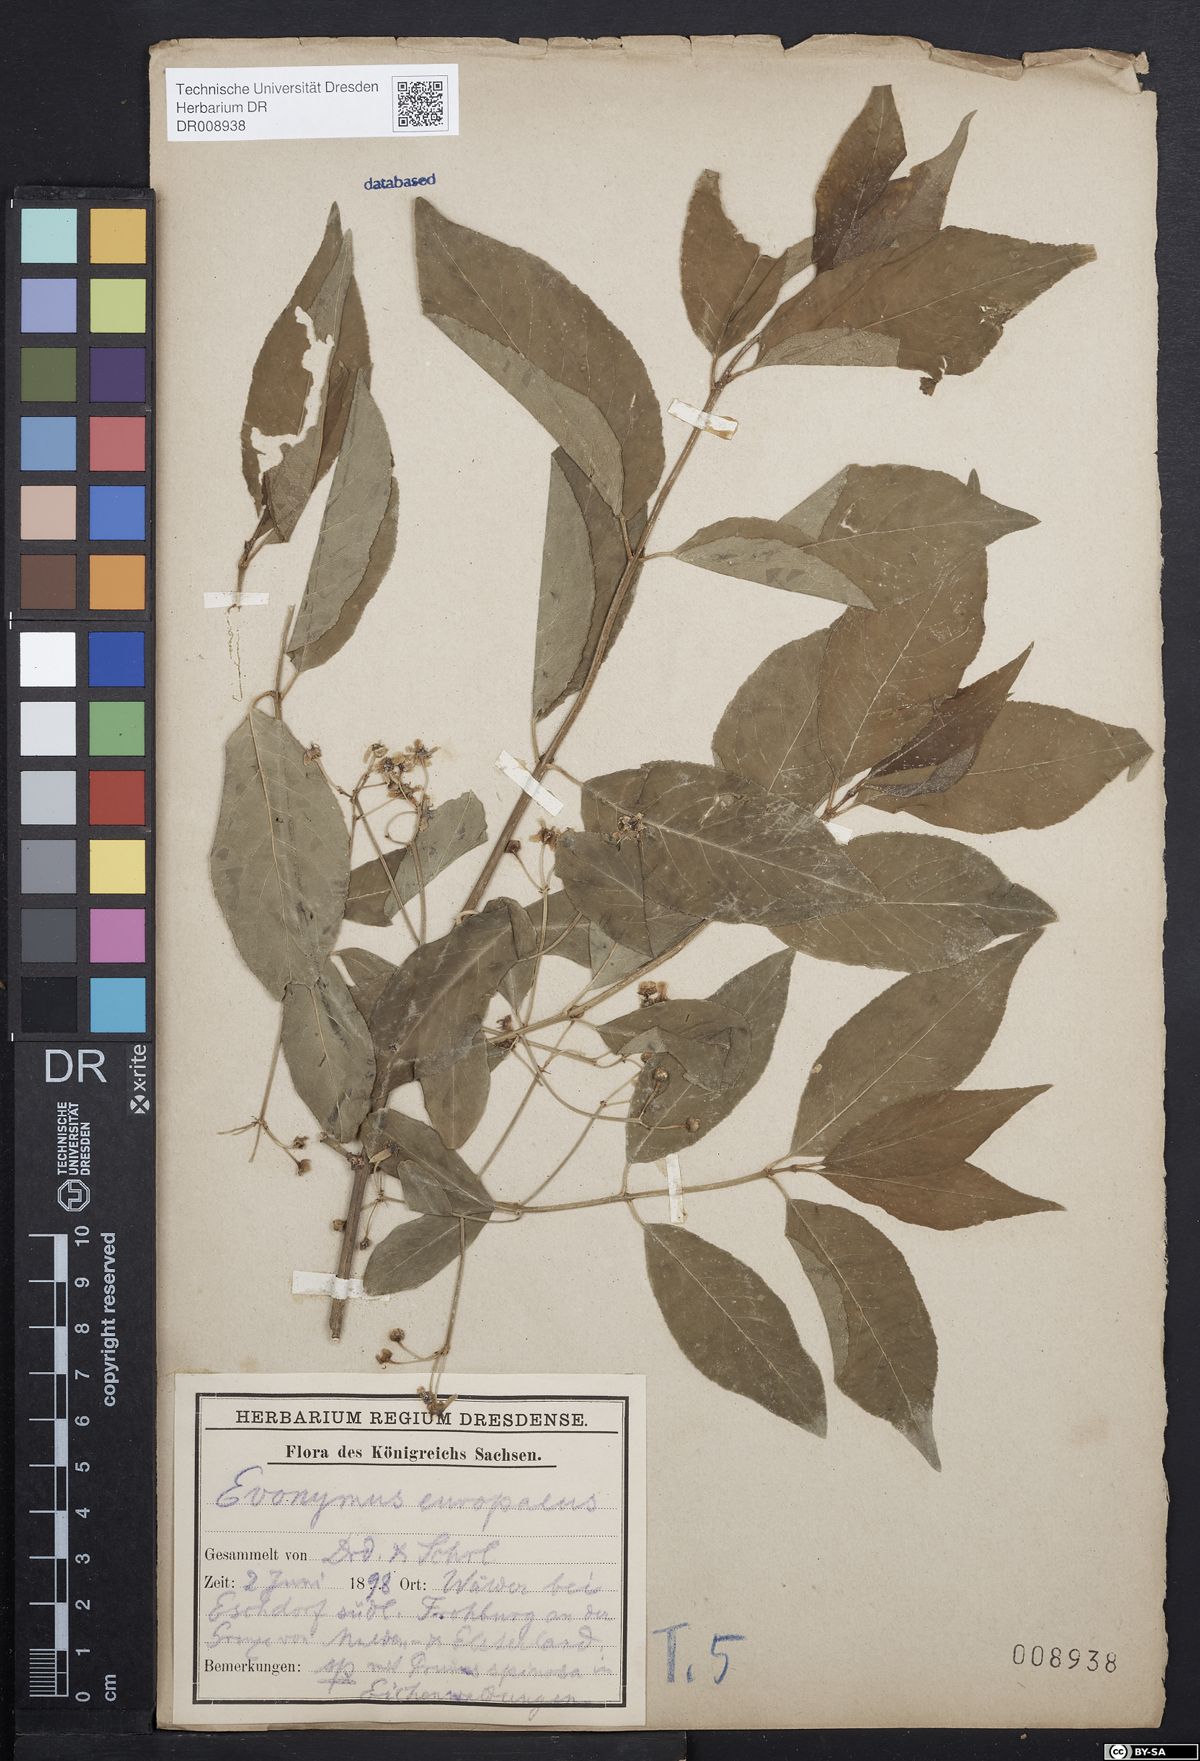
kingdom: Plantae
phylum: Tracheophyta
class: Magnoliopsida
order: Celastrales
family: Celastraceae
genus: Euonymus
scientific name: Euonymus europaeus
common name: Spindle
